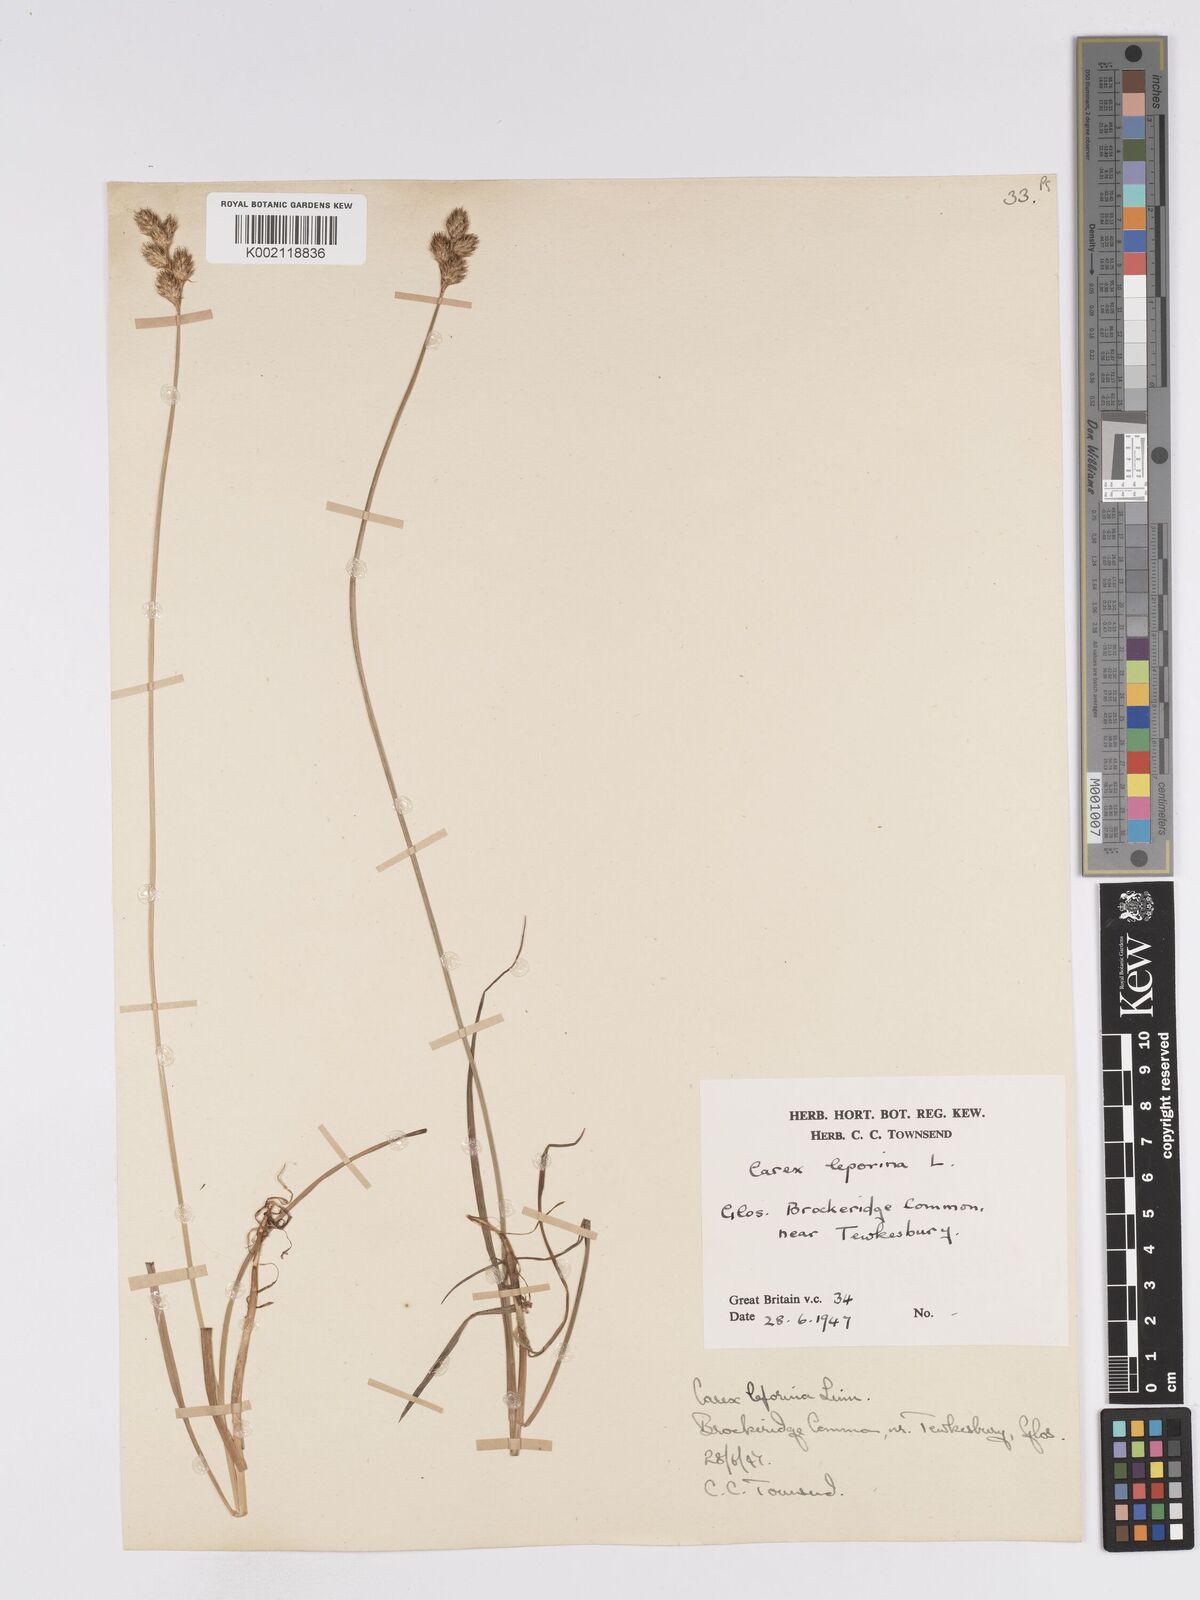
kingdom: Plantae
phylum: Tracheophyta
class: Liliopsida
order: Poales
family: Cyperaceae
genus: Carex
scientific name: Carex leporina
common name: Oval sedge
